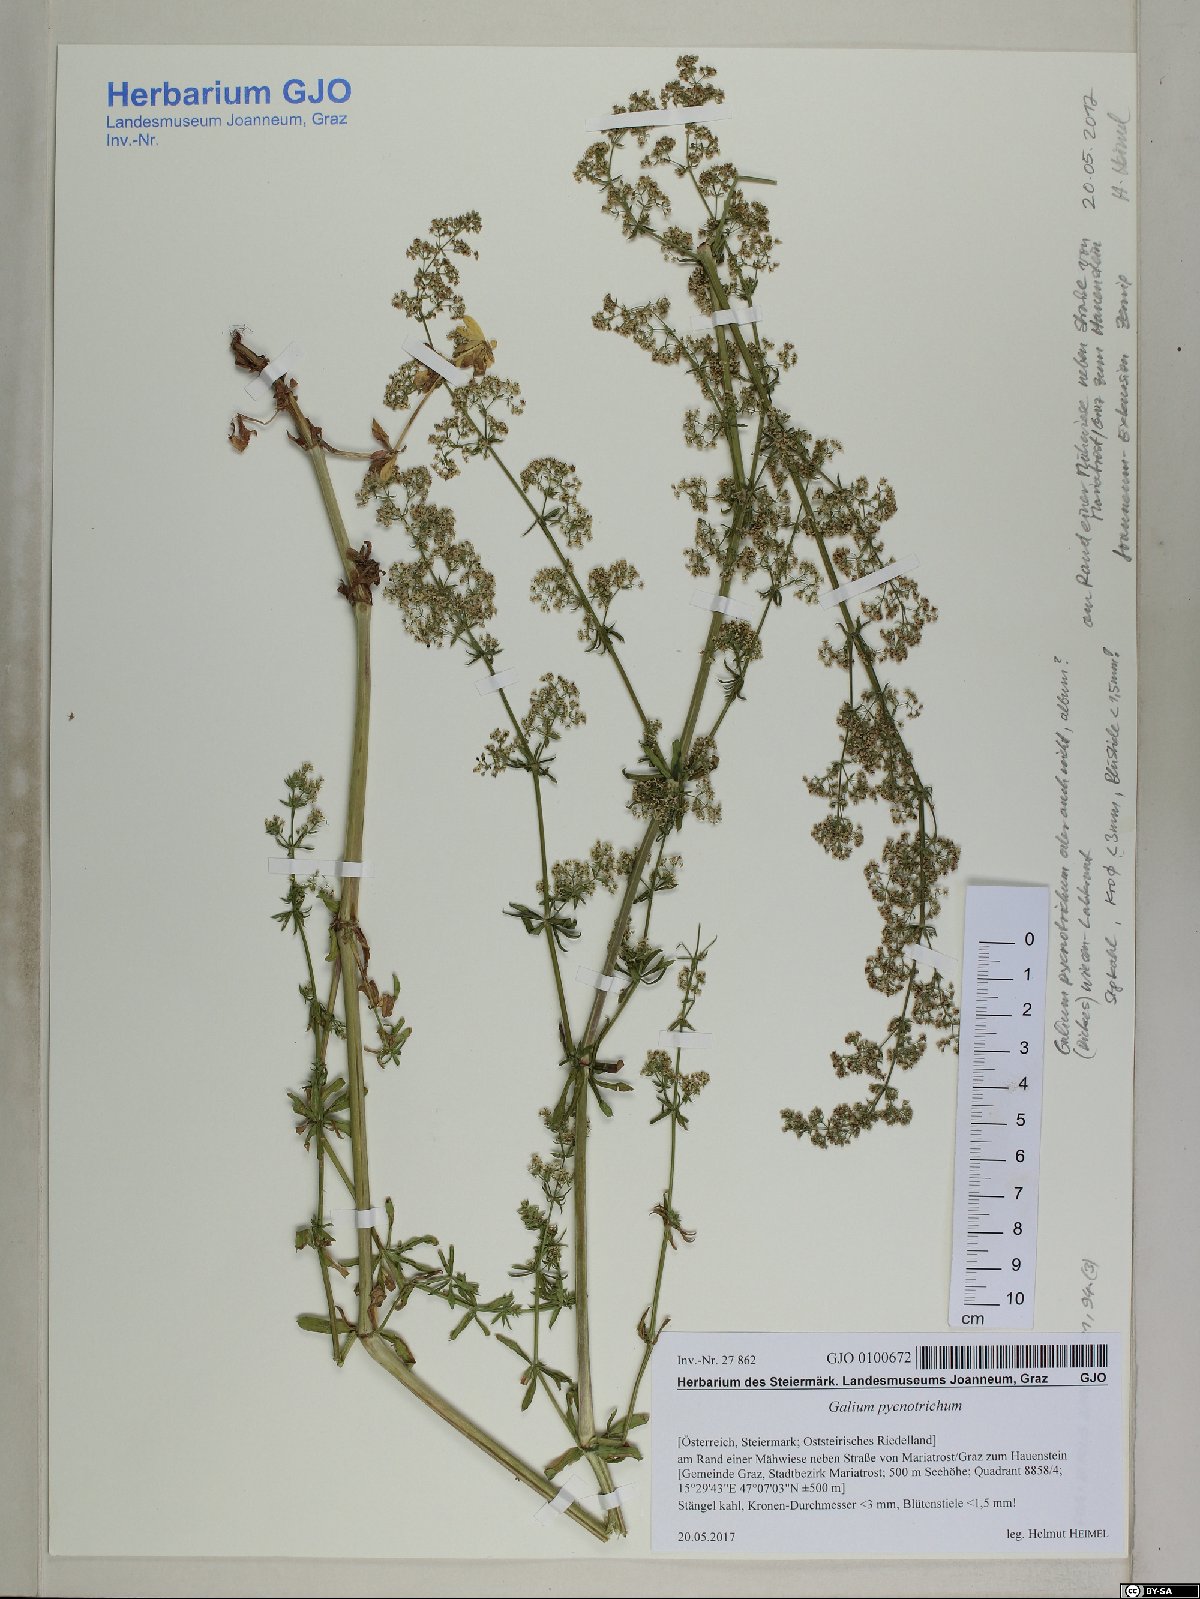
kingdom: Plantae
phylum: Tracheophyta
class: Magnoliopsida
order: Gentianales
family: Rubiaceae
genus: Galium
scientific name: Galium album
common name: White bedstraw
